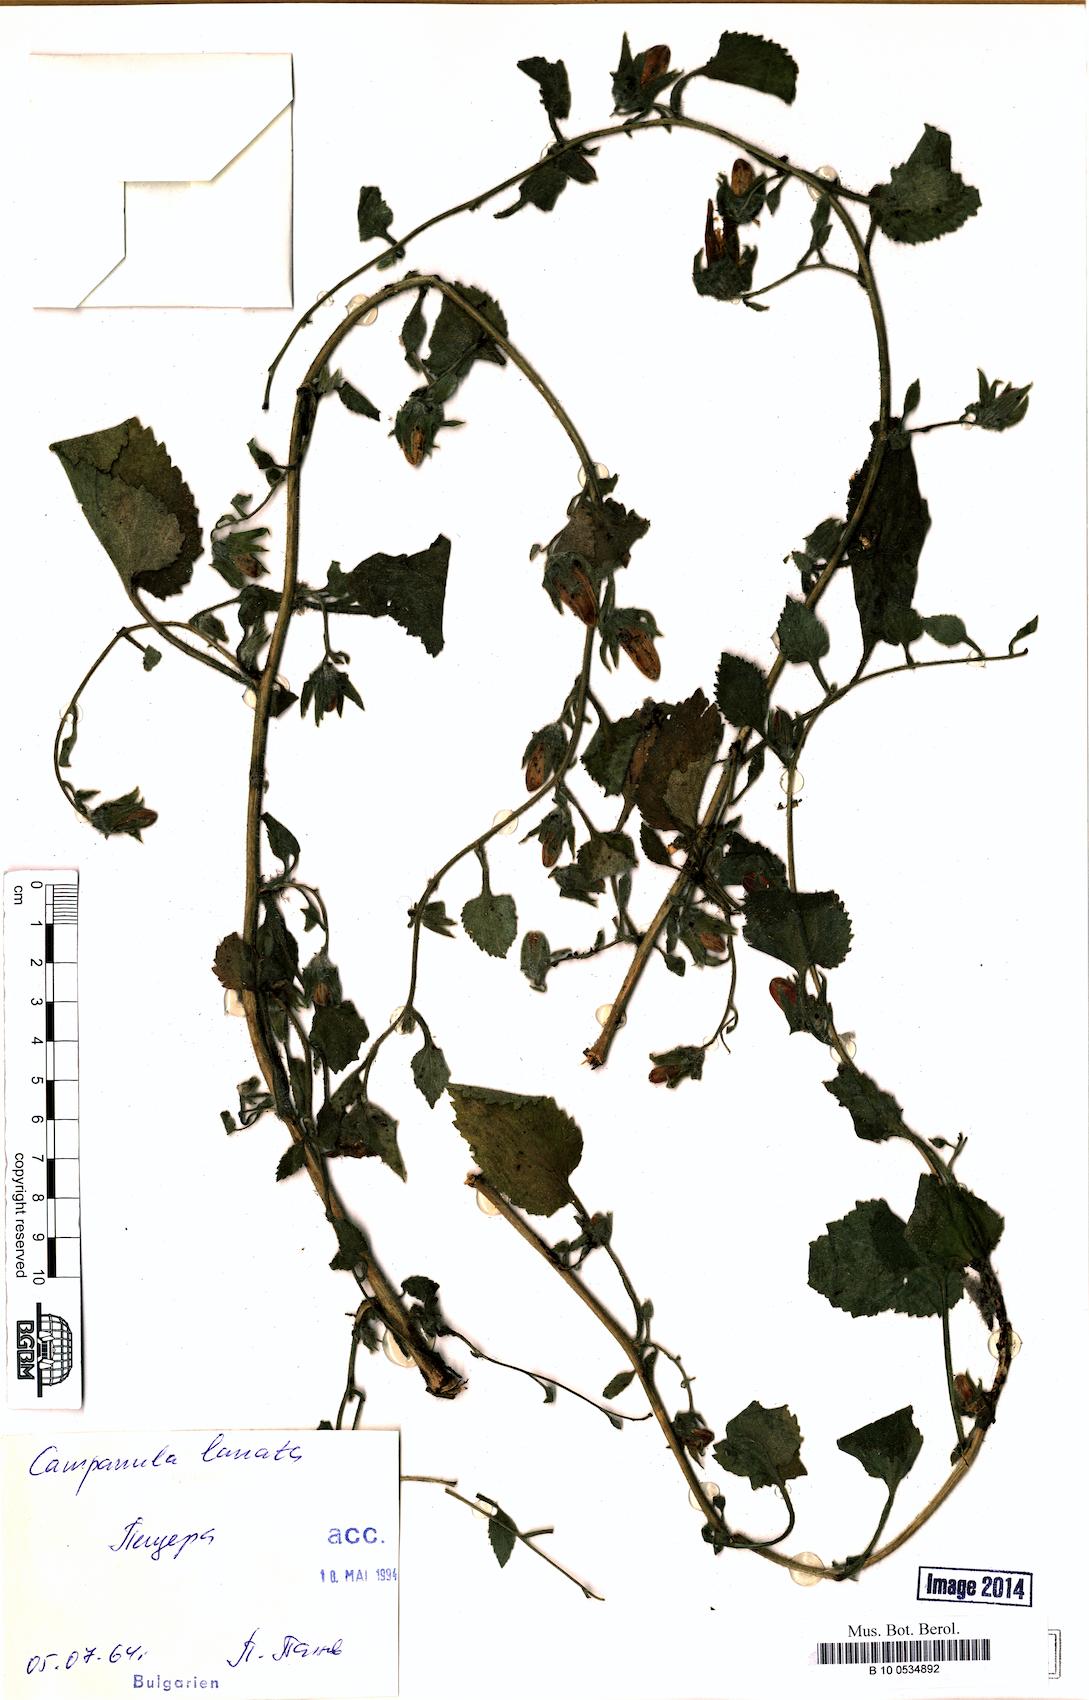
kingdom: Plantae
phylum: Tracheophyta
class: Magnoliopsida
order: Asterales
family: Campanulaceae
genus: Campanula
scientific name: Campanula lanata
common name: Woolly bellflower
